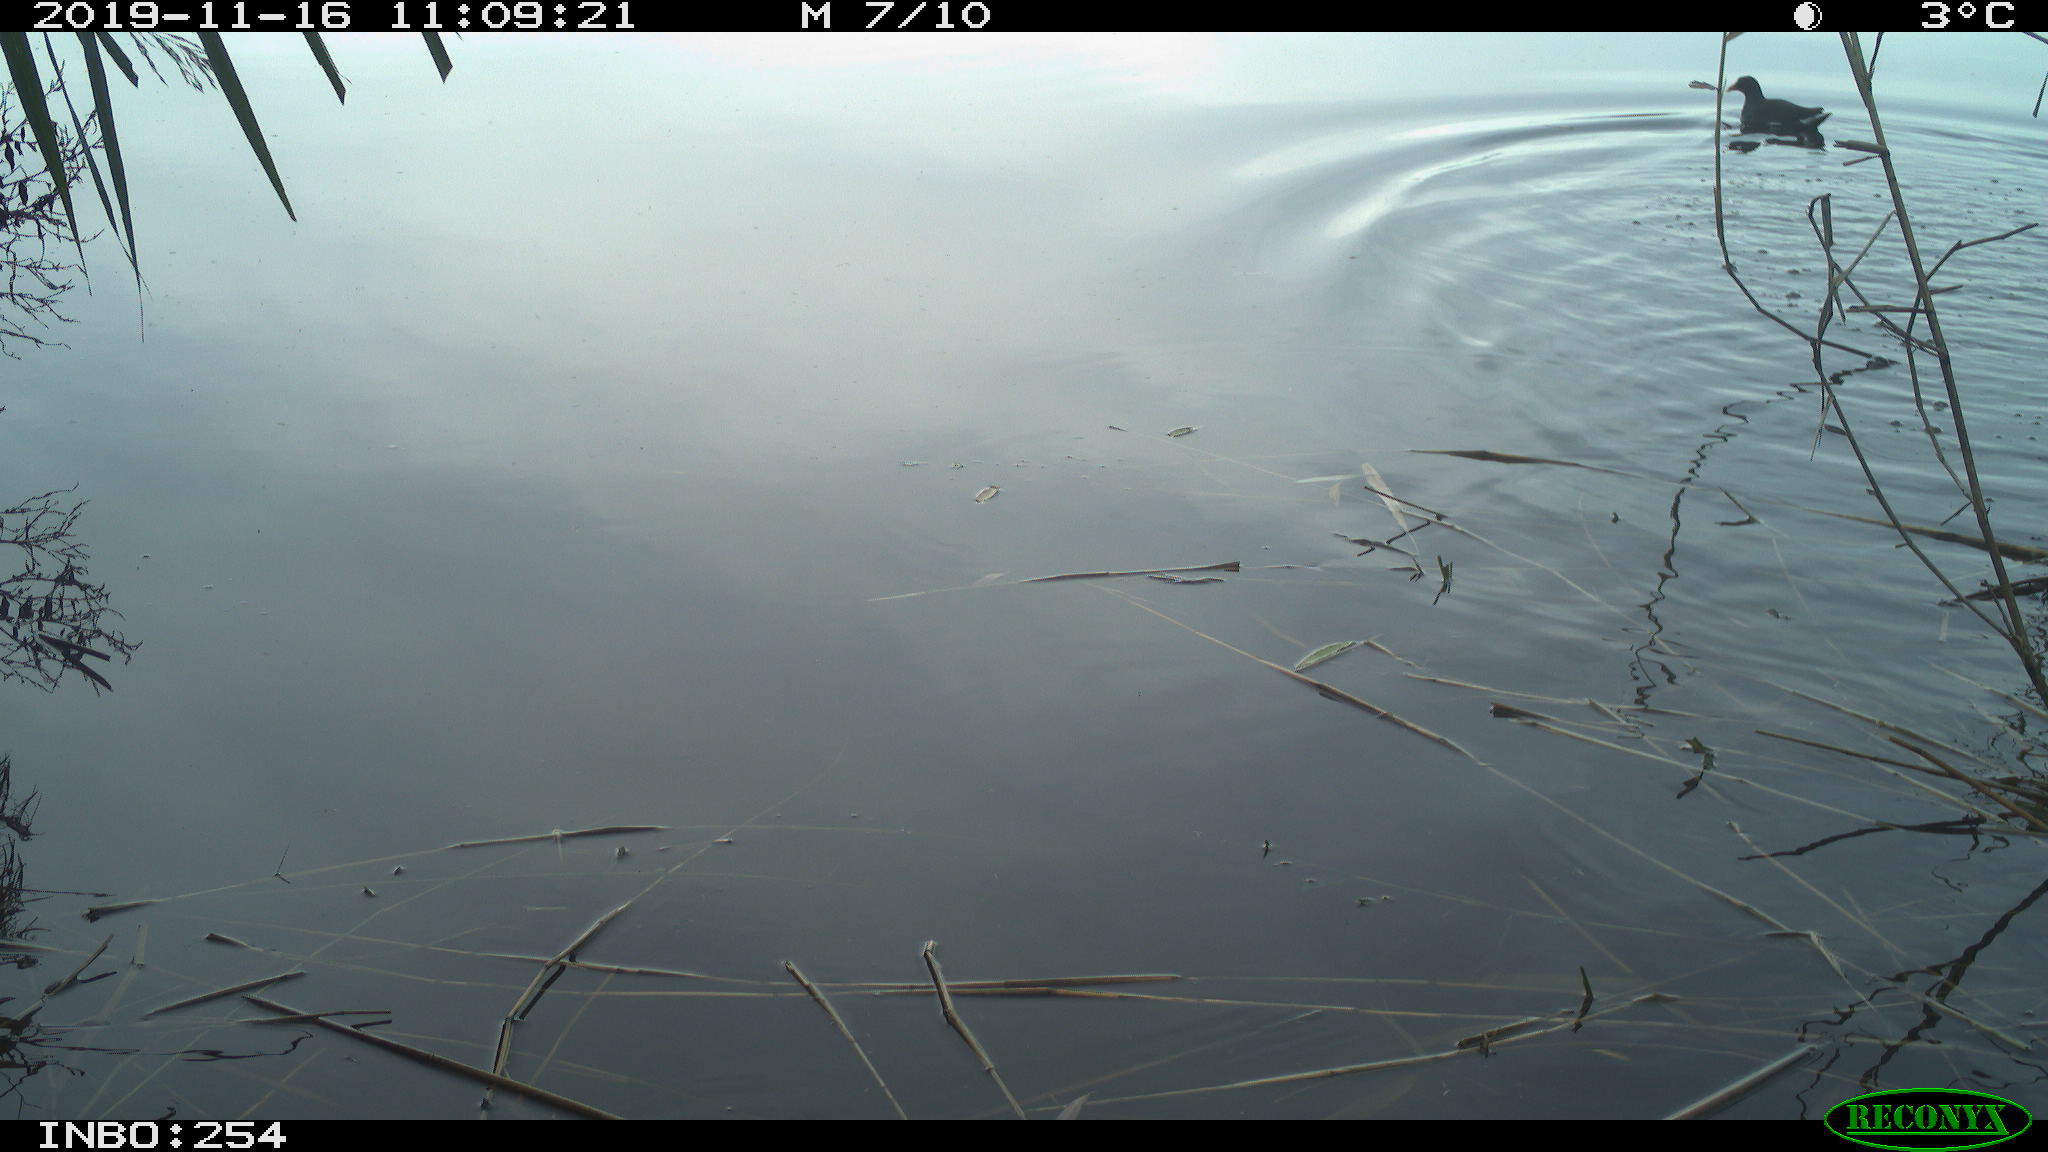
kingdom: Animalia
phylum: Chordata
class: Aves
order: Gruiformes
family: Rallidae
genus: Gallinula
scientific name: Gallinula chloropus
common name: Common moorhen
